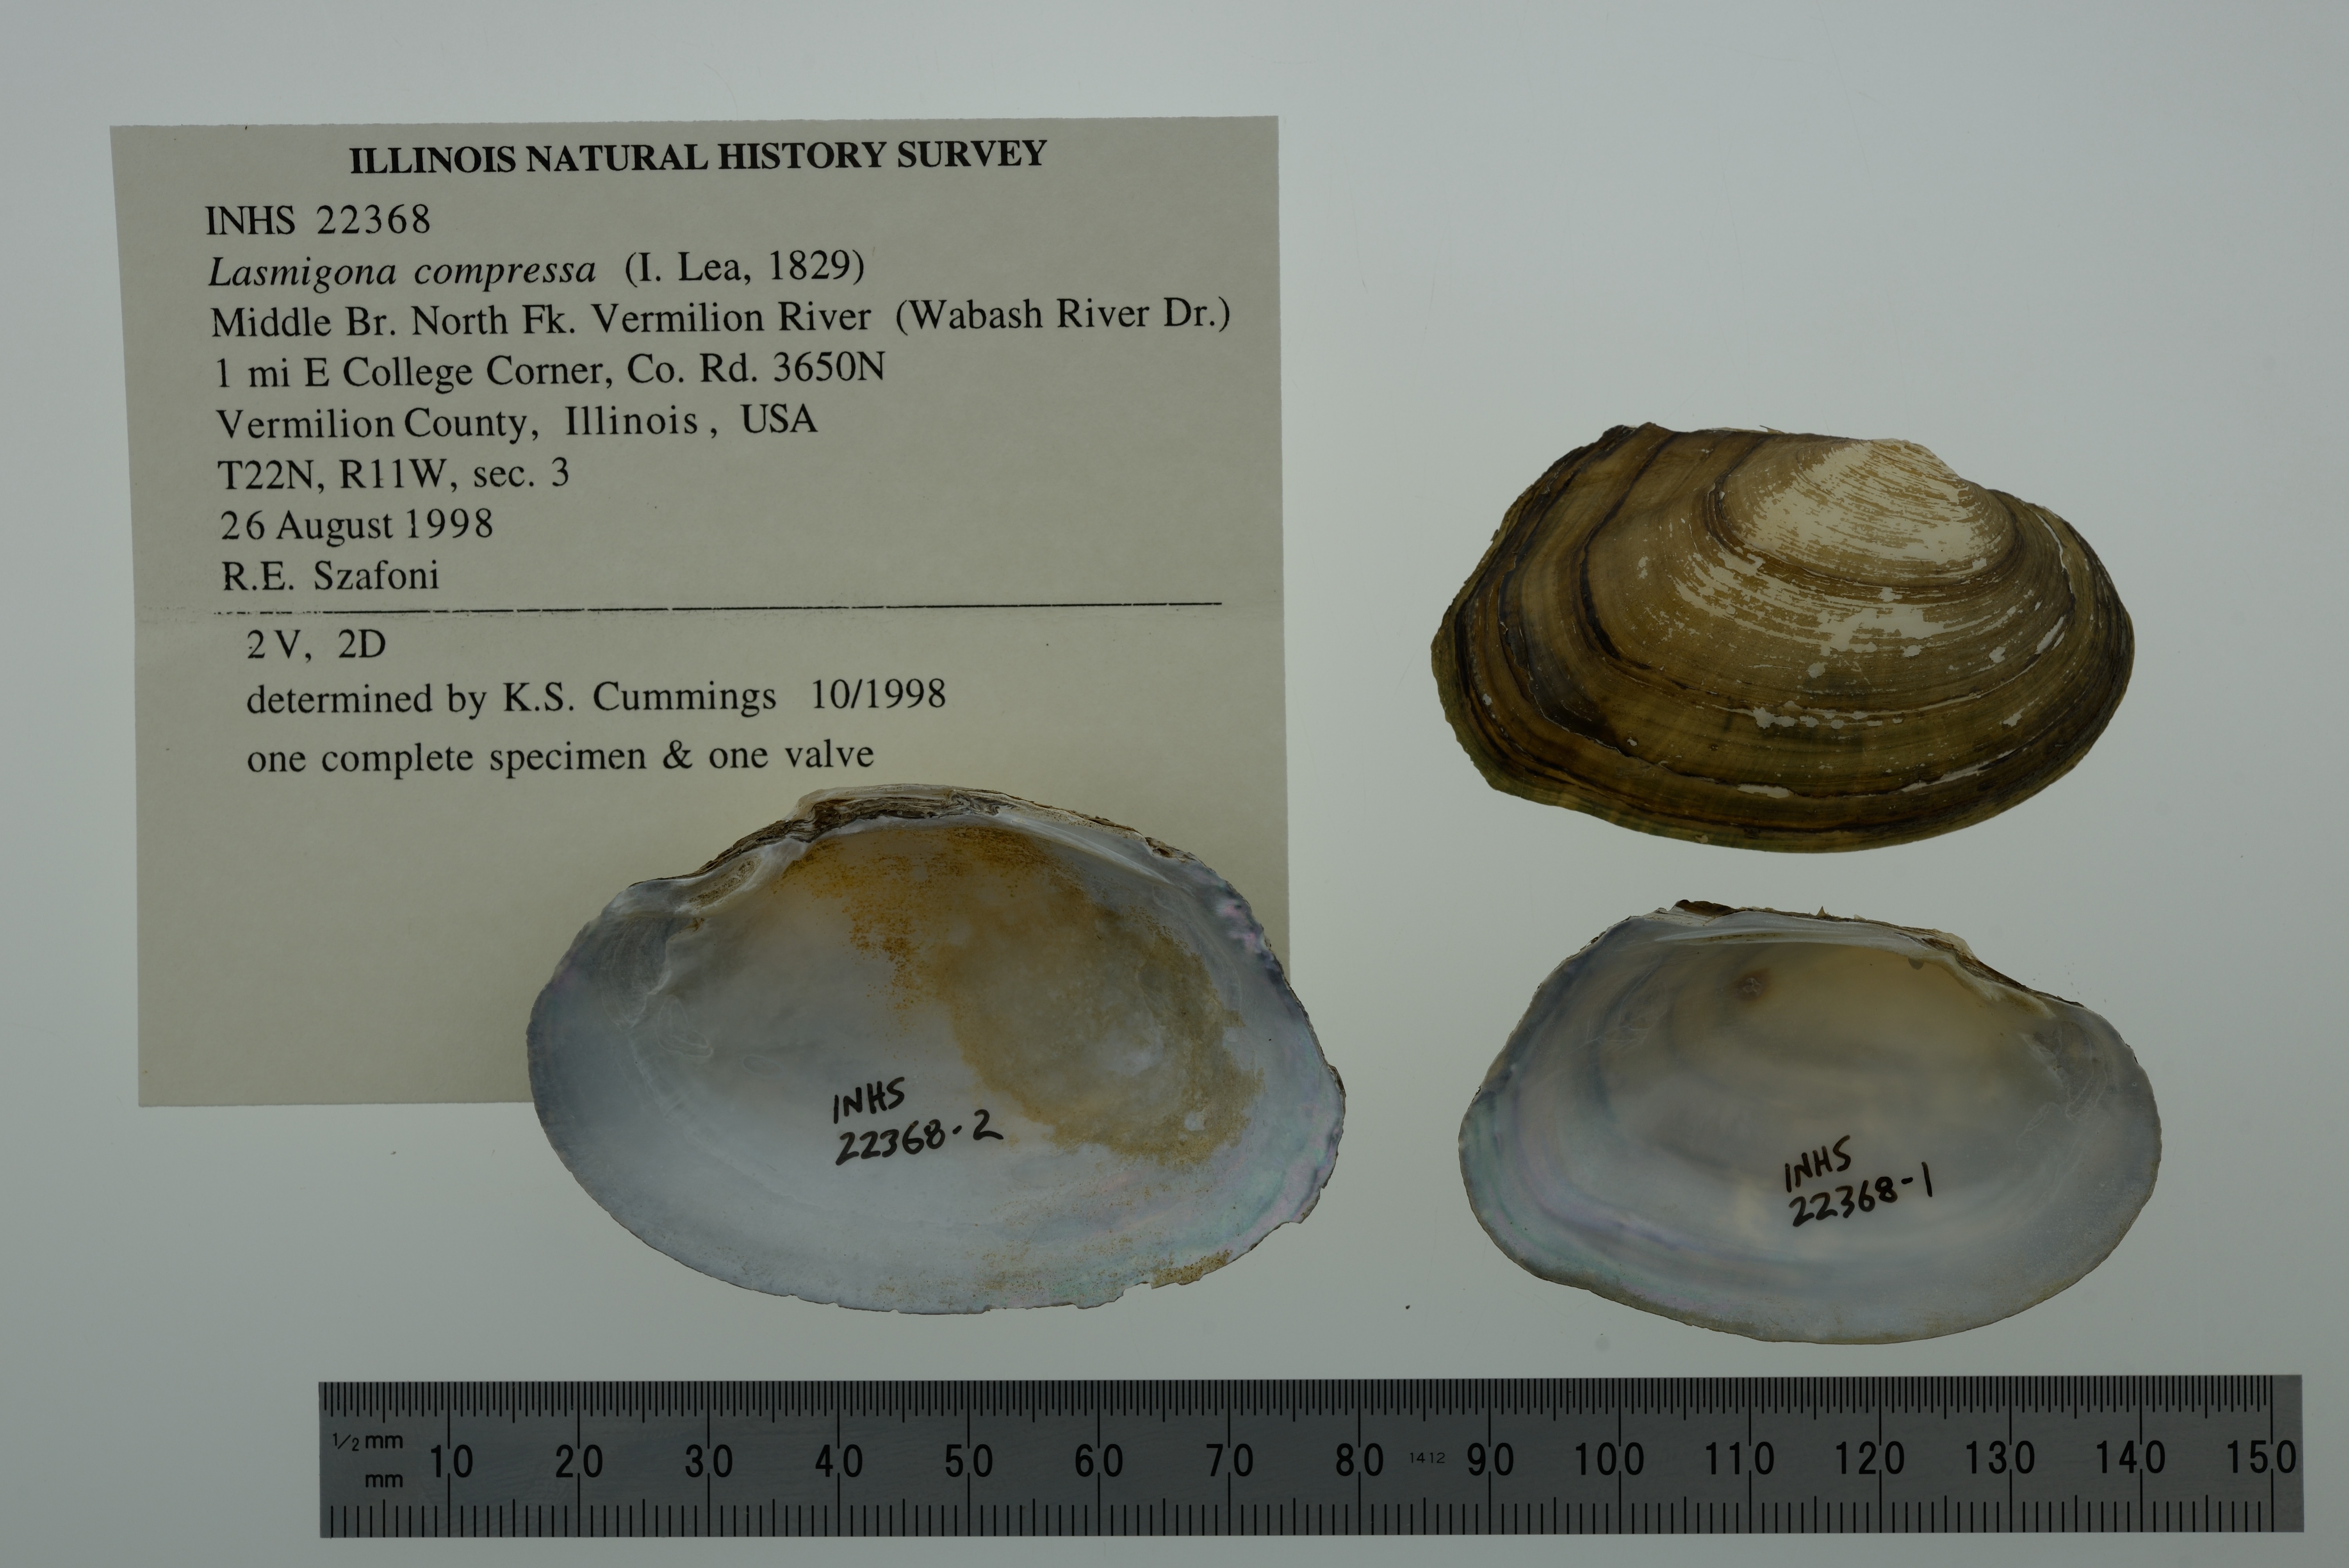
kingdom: Animalia
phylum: Mollusca
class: Bivalvia
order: Unionida
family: Unionidae
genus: Lasmigona
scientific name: Lasmigona compressa
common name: Creek heelsplitter
